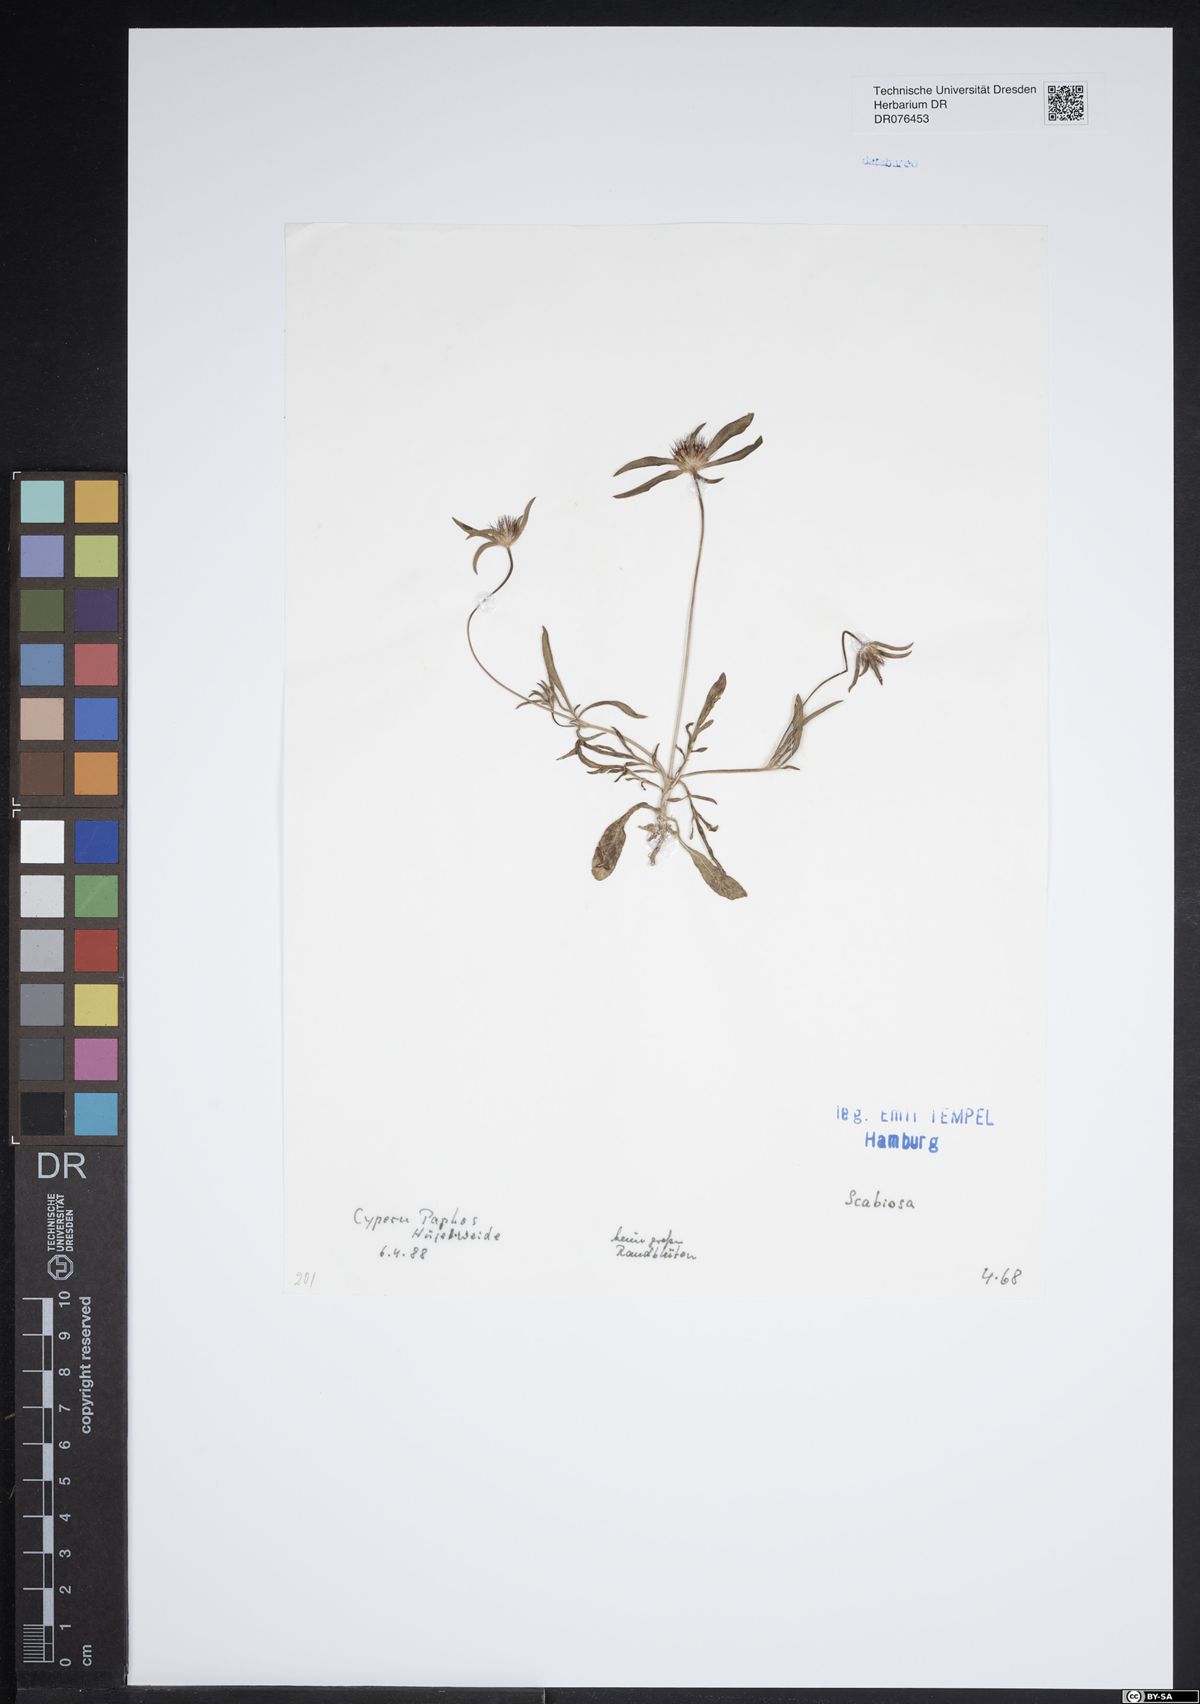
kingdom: Plantae
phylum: Tracheophyta
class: Magnoliopsida
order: Dipsacales
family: Caprifoliaceae
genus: Scabiosa
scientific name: Scabiosa
